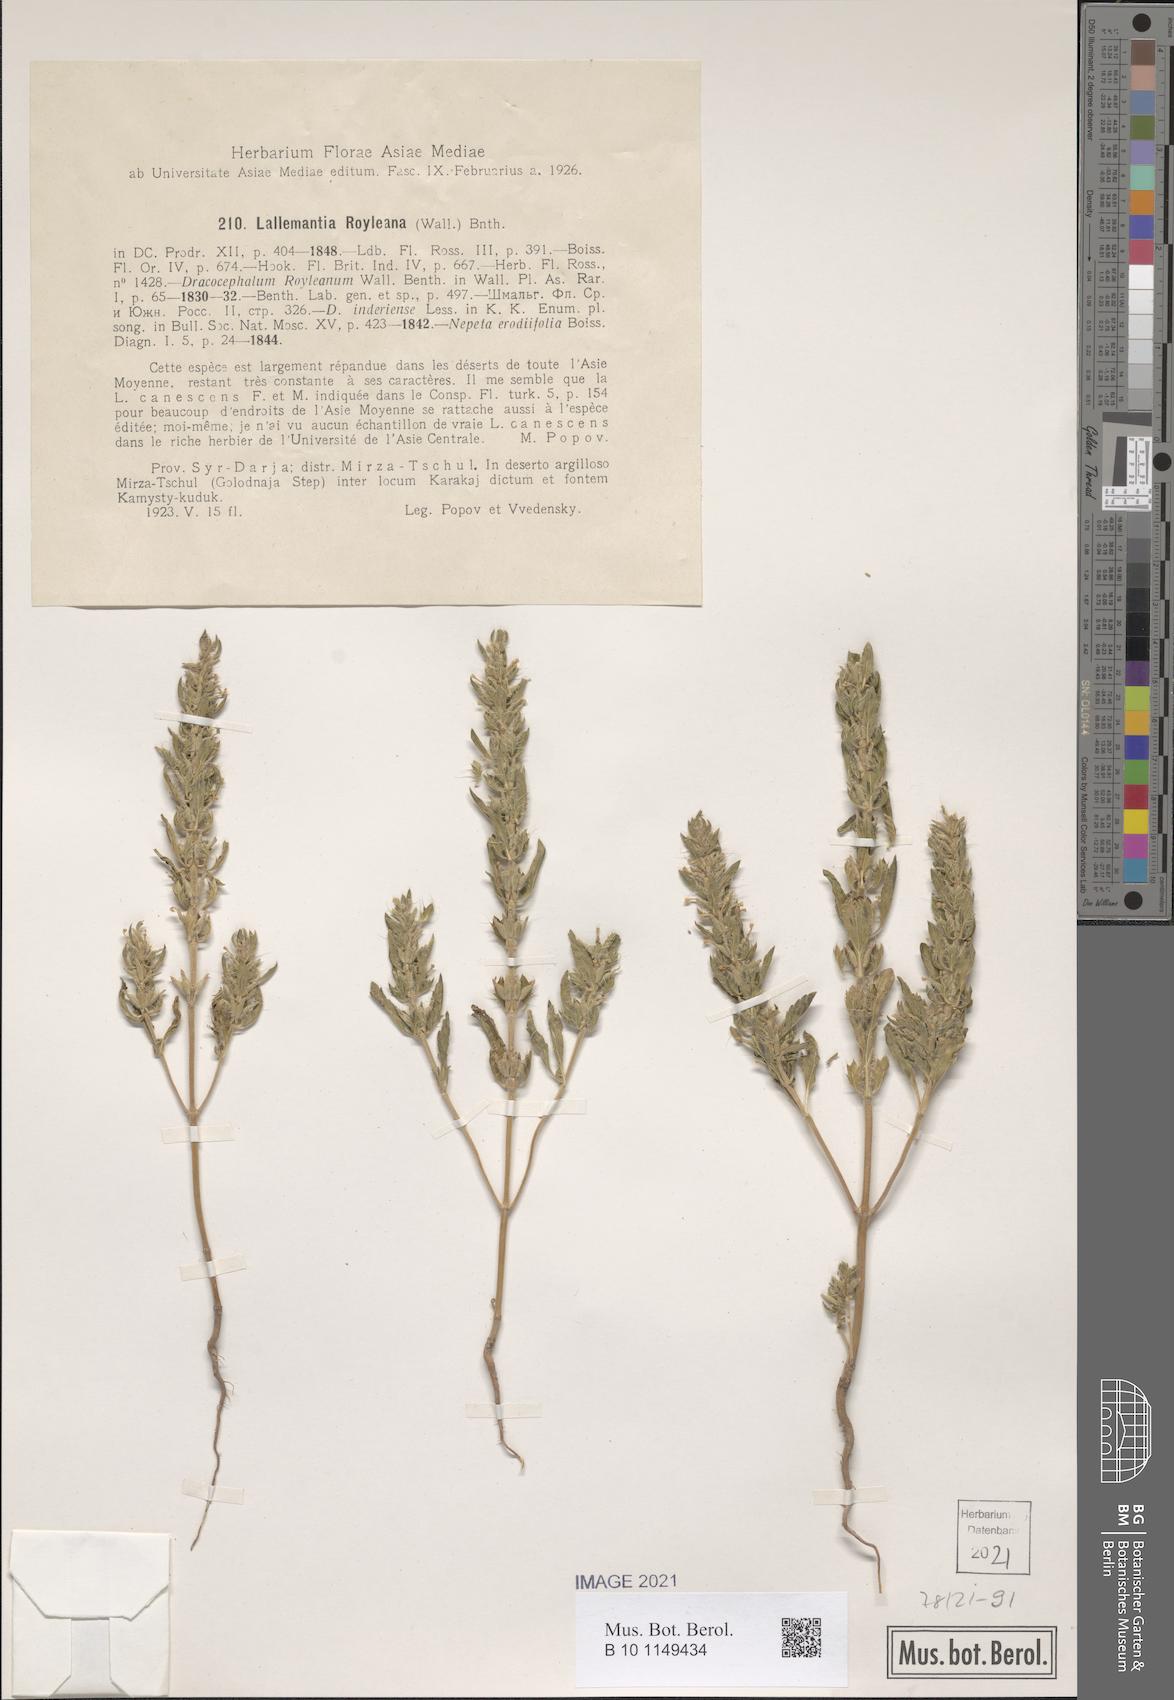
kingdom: Plantae
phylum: Tracheophyta
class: Magnoliopsida
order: Lamiales
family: Lamiaceae
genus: Lallemantia
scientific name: Lallemantia royleana
